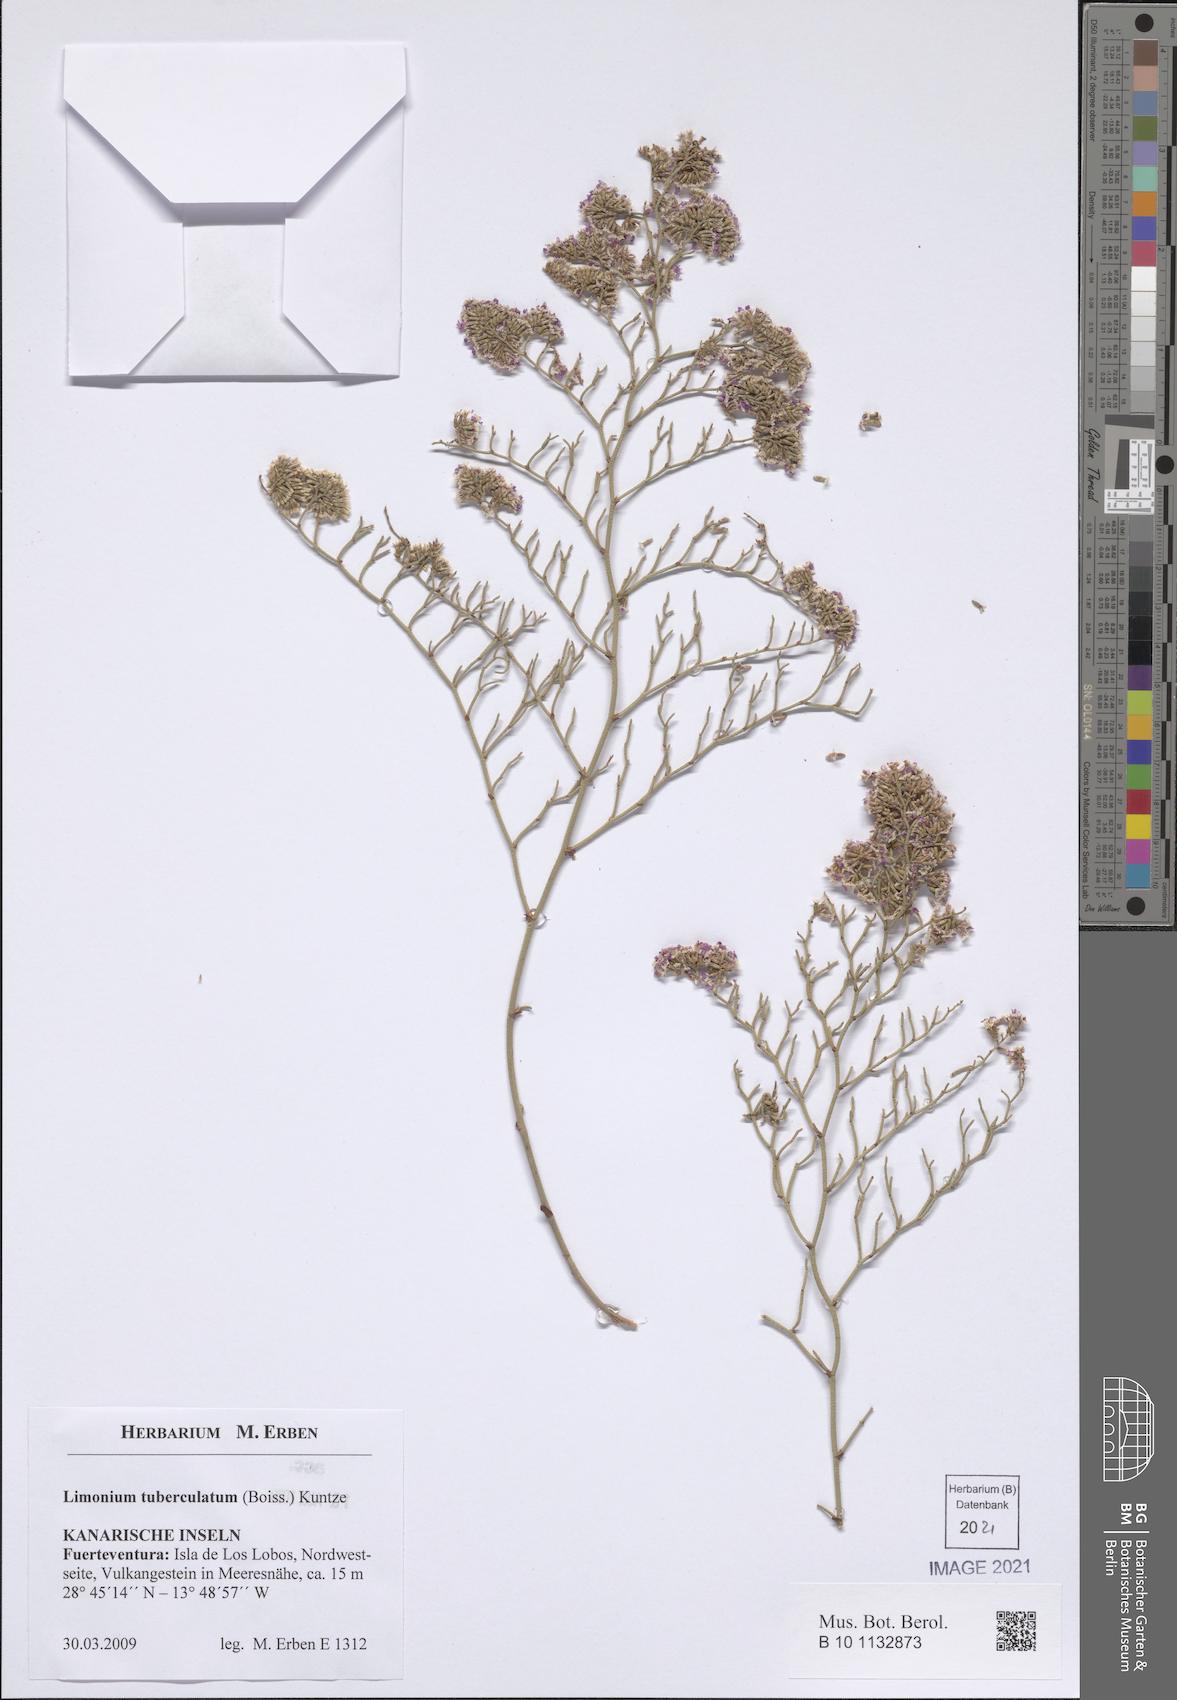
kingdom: Plantae
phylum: Tracheophyta
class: Magnoliopsida
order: Caryophyllales
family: Plumbaginaceae
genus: Limonium
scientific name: Limonium tuberculatum
